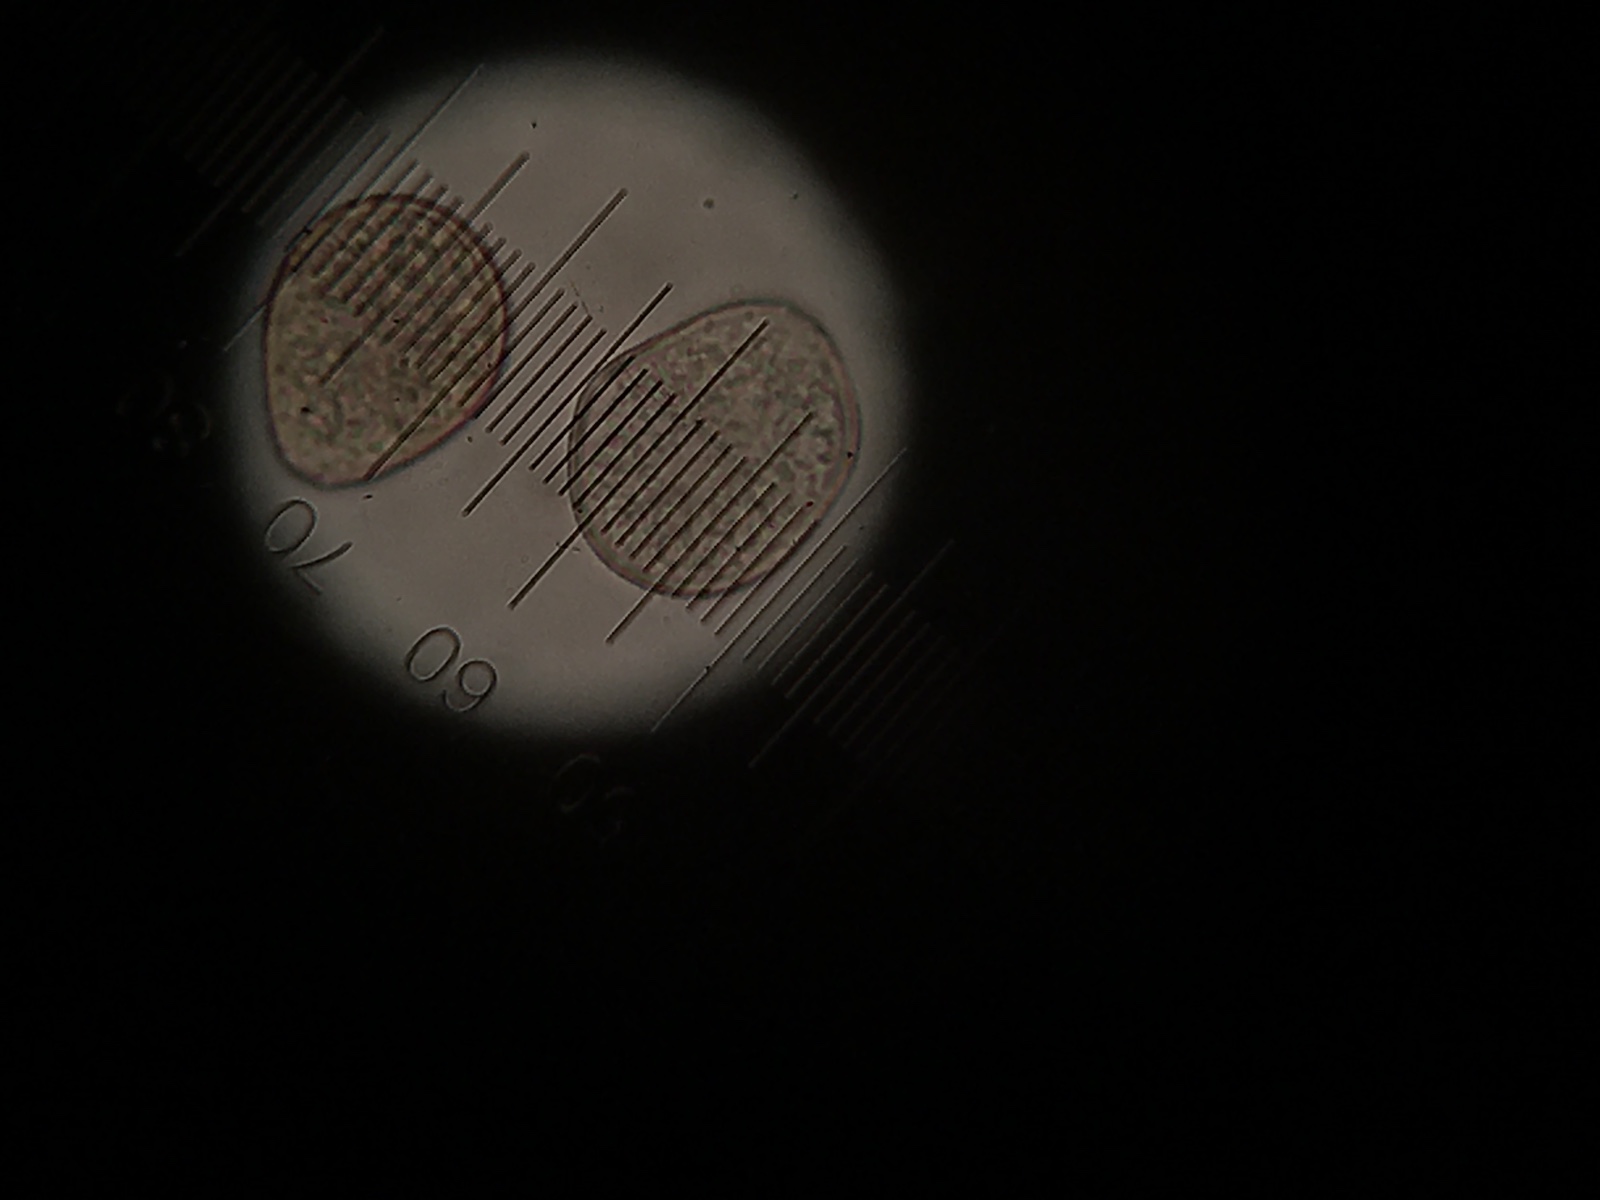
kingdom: Fungi
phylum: Basidiomycota
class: Pucciniomycetes
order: Pucciniales
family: Pucciniaceae
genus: Puccinia
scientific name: Puccinia menthae
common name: Mint rust
